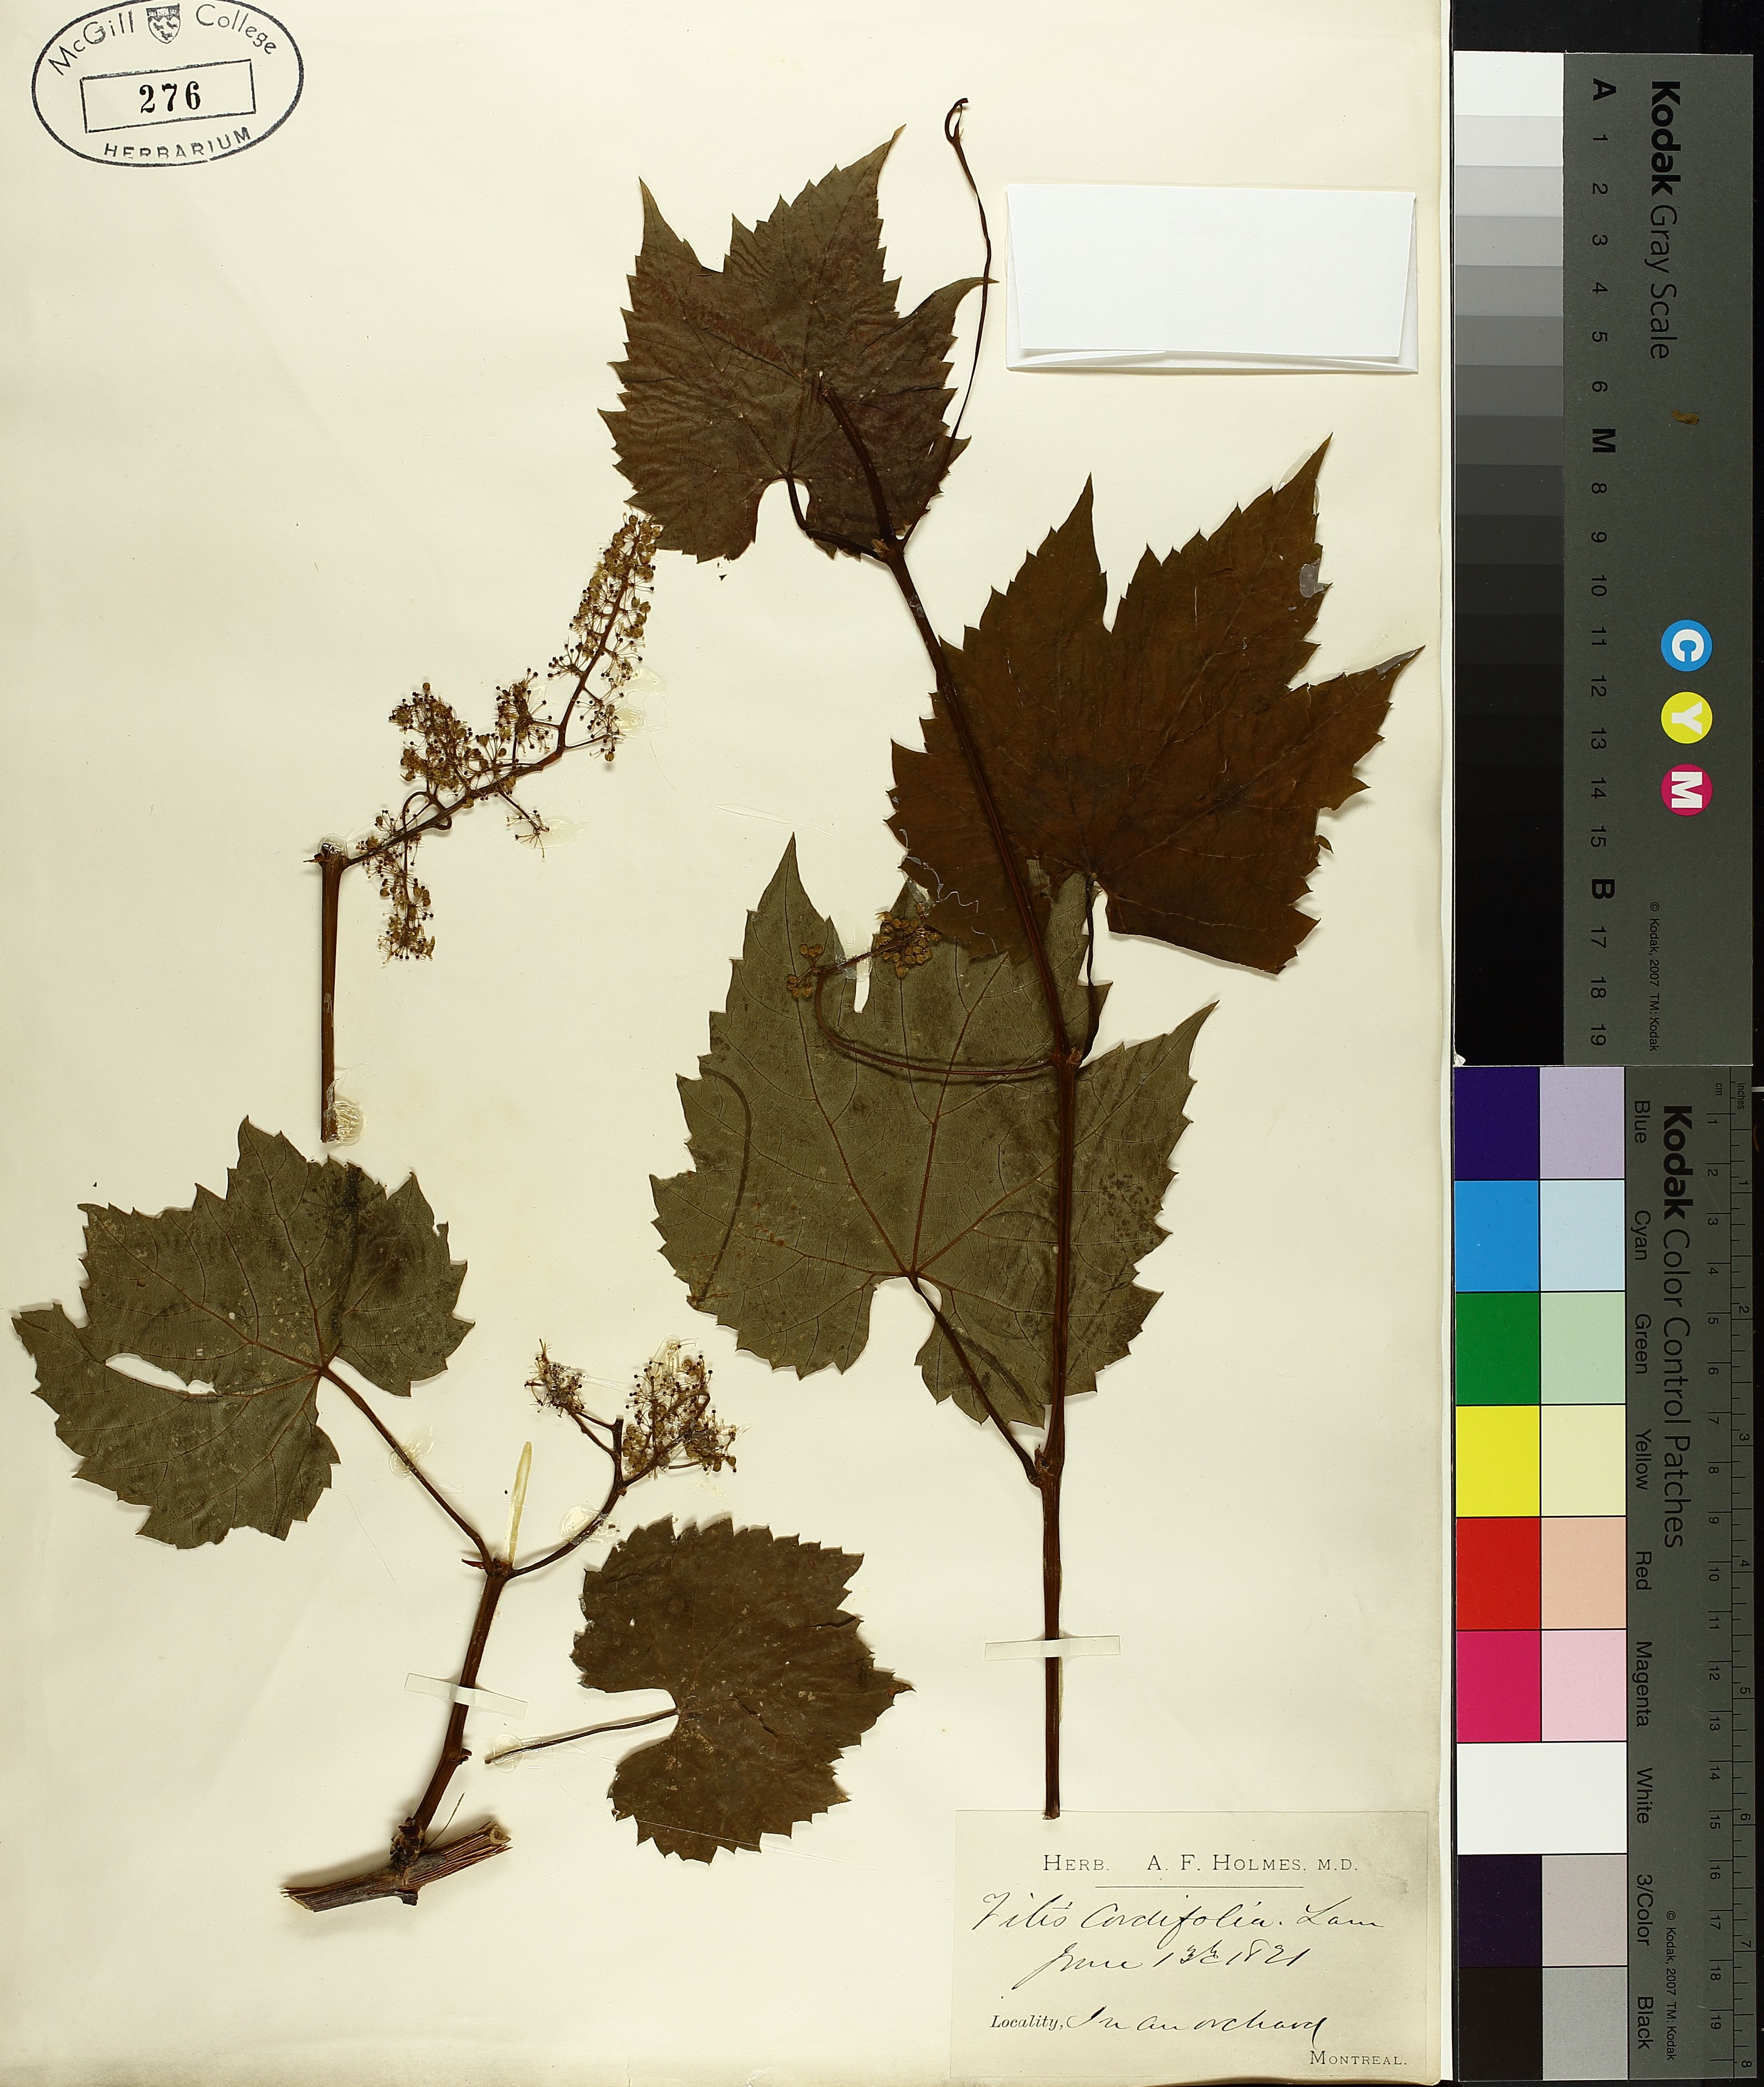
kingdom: Plantae
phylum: Tracheophyta
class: Magnoliopsida
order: Vitales
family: Vitaceae
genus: Vitis
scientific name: Vitis riparia
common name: Frost grape
